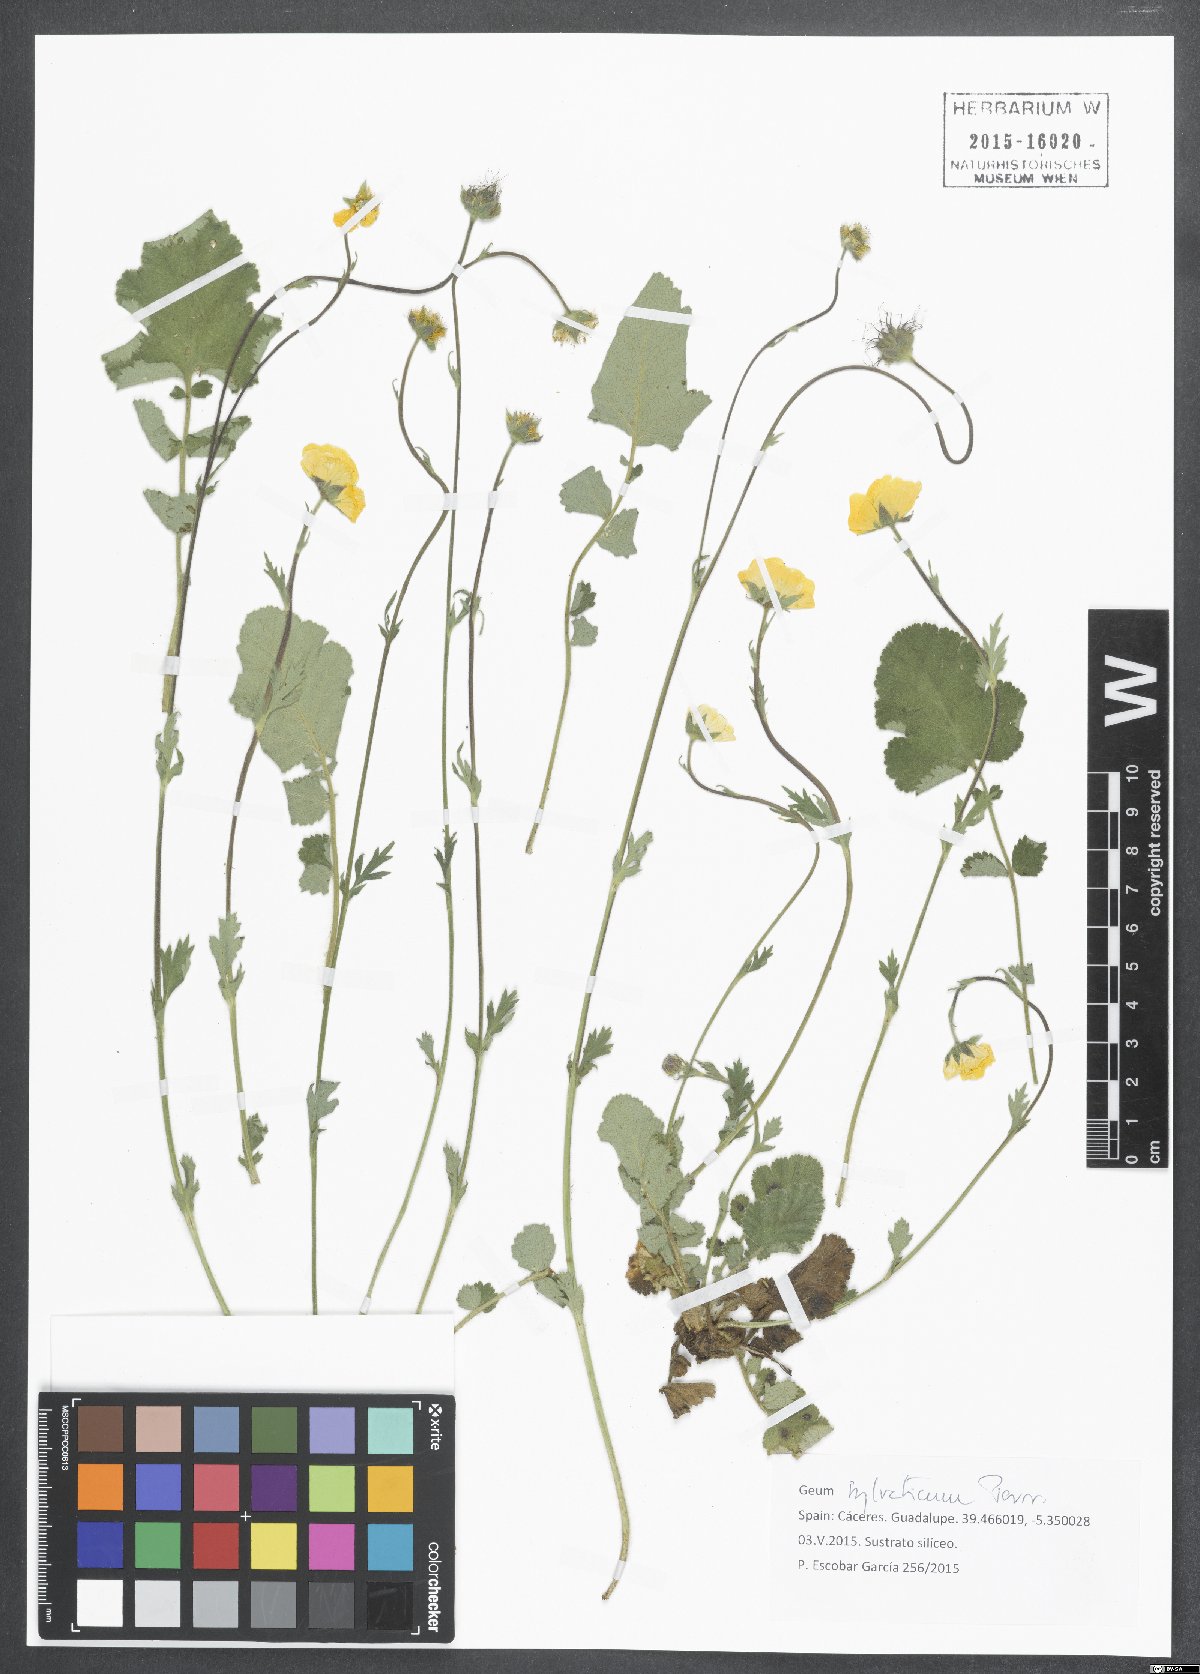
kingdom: Plantae
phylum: Tracheophyta
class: Magnoliopsida
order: Rosales
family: Rosaceae
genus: Geum
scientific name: Geum sylvaticum
